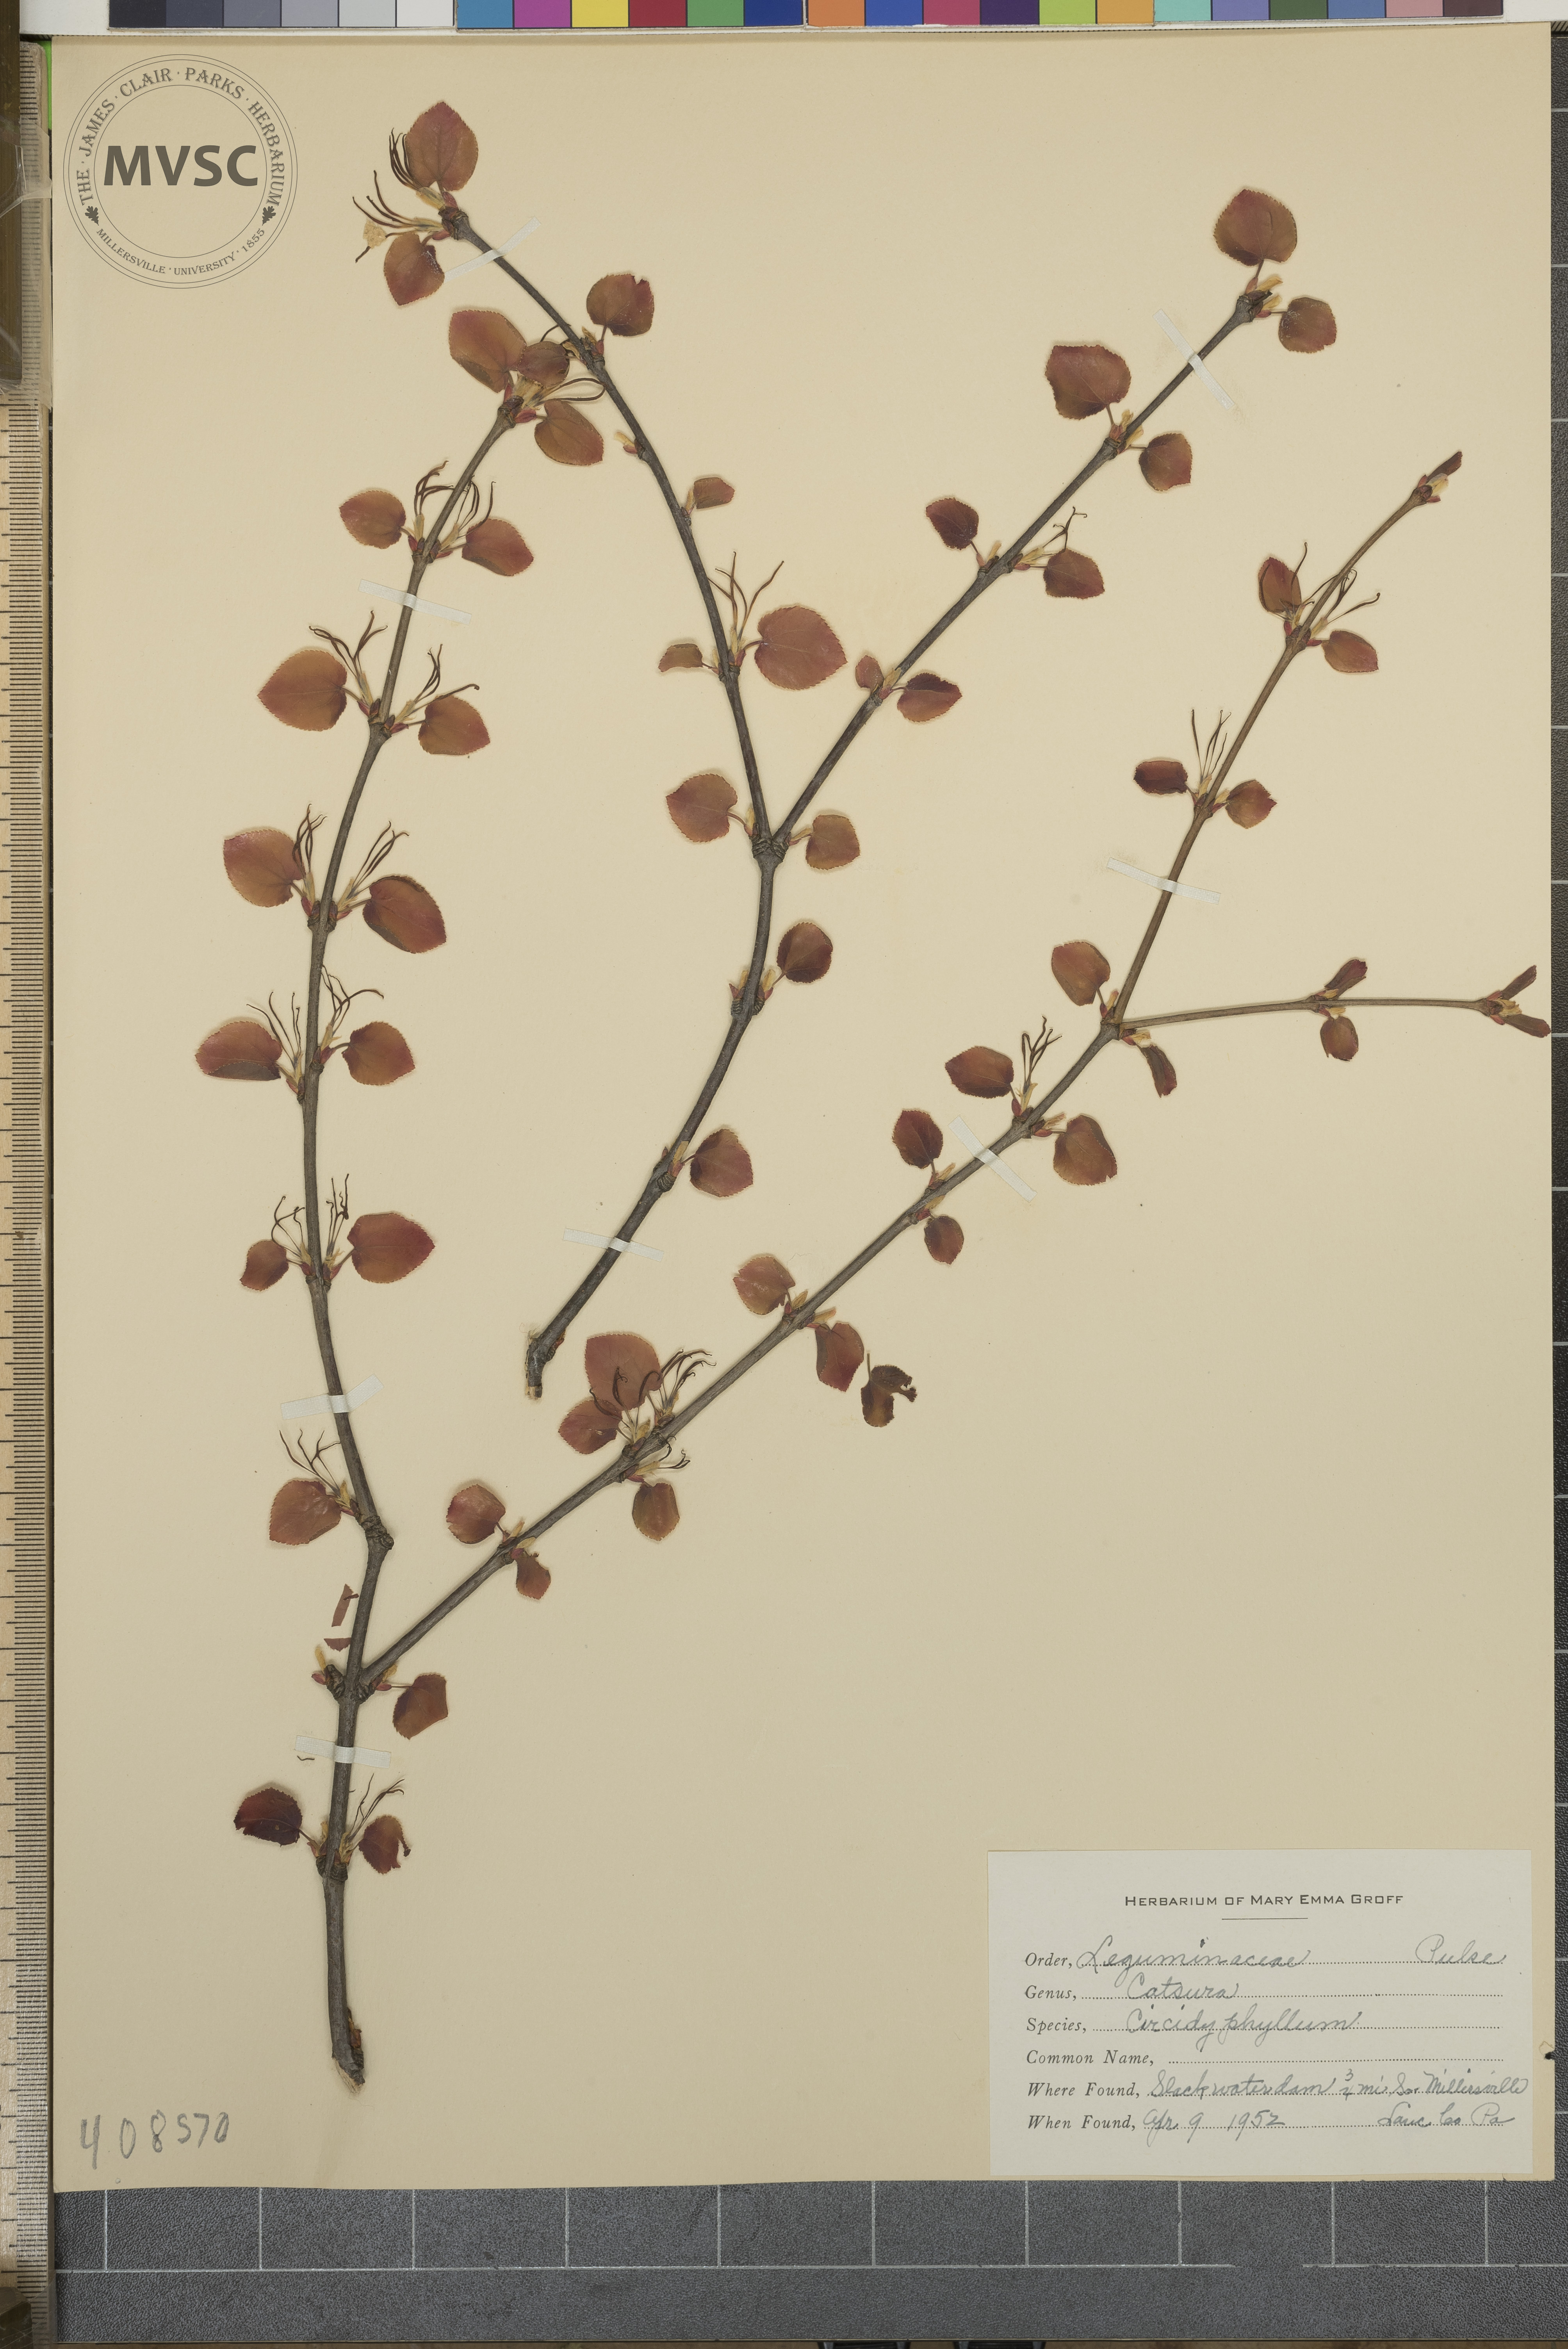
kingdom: Plantae
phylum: Tracheophyta
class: Magnoliopsida
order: Saxifragales
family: Cercidiphyllaceae
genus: Cercidiphyllum
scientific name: Cercidiphyllum japonicum
